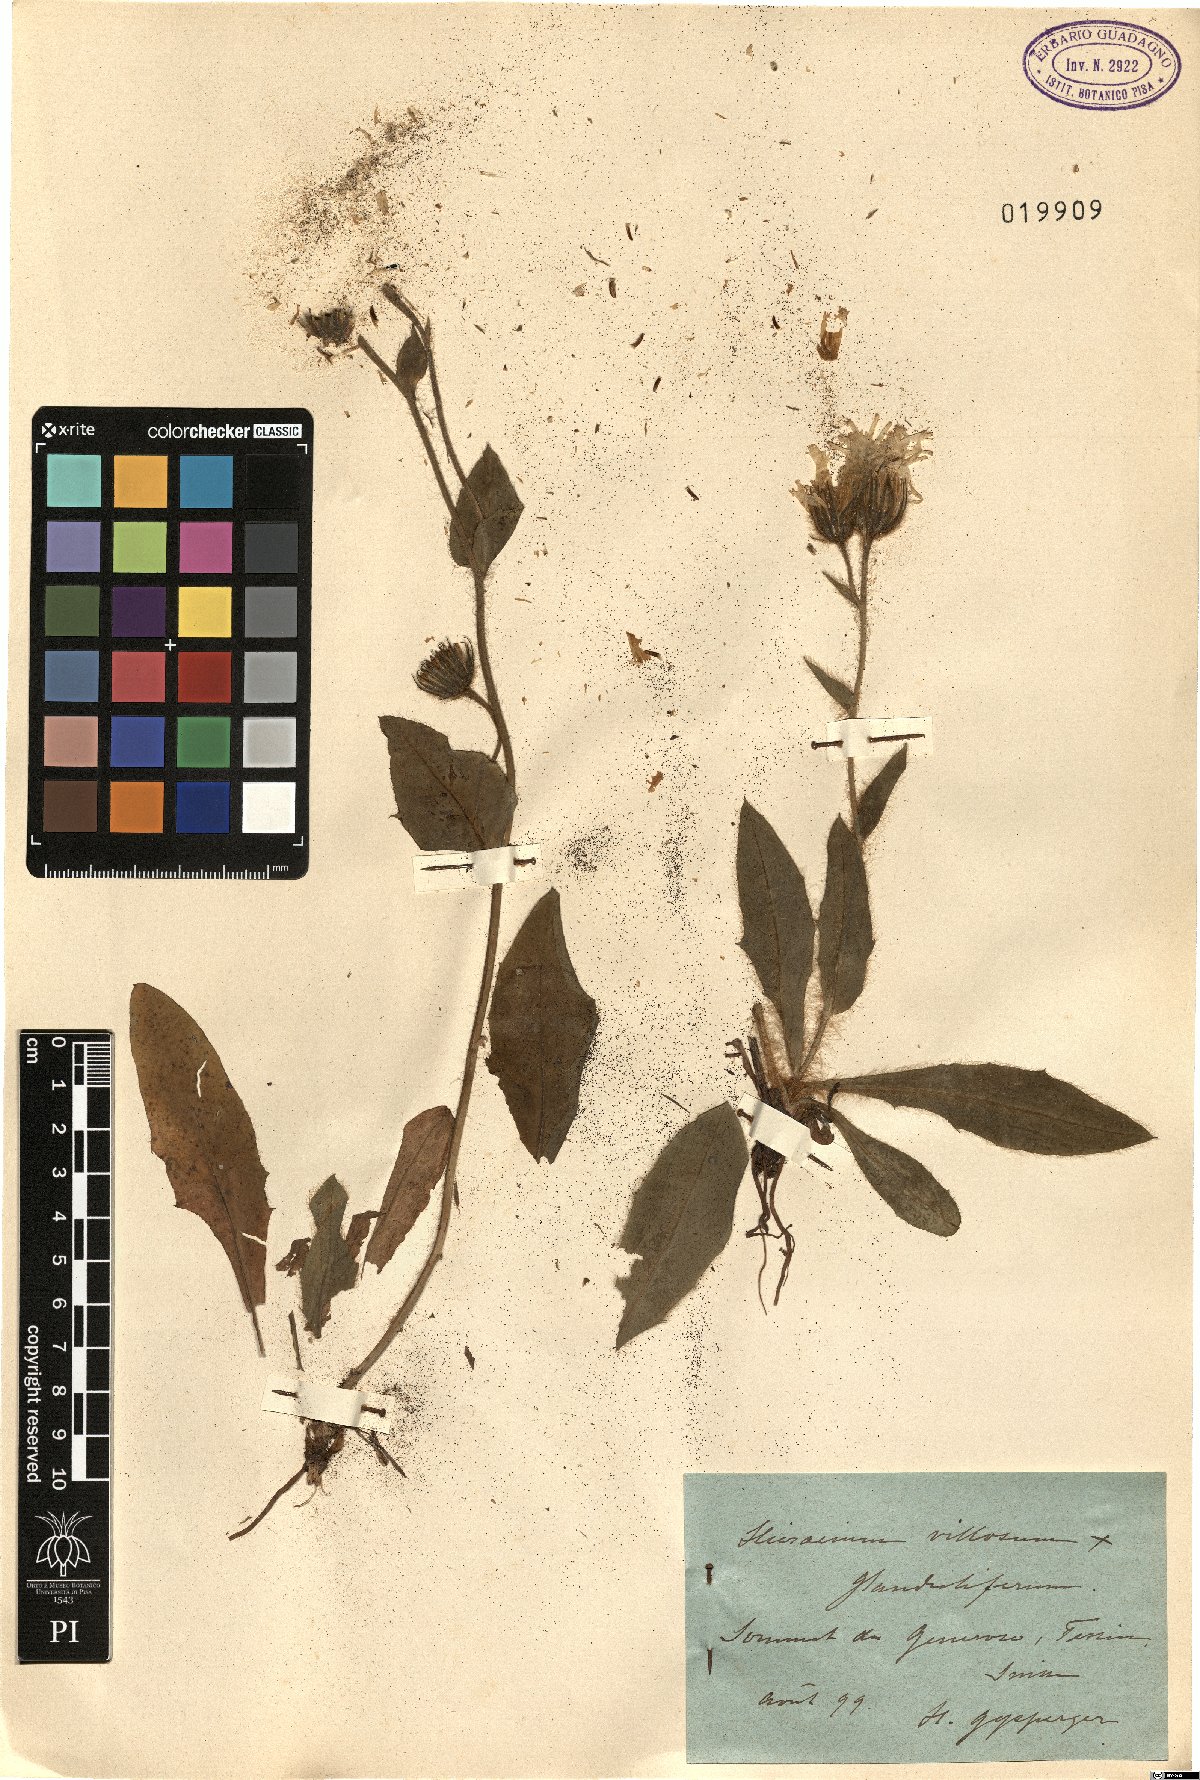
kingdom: Plantae
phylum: Tracheophyta
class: Magnoliopsida
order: Asterales
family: Asteraceae
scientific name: Asteraceae
